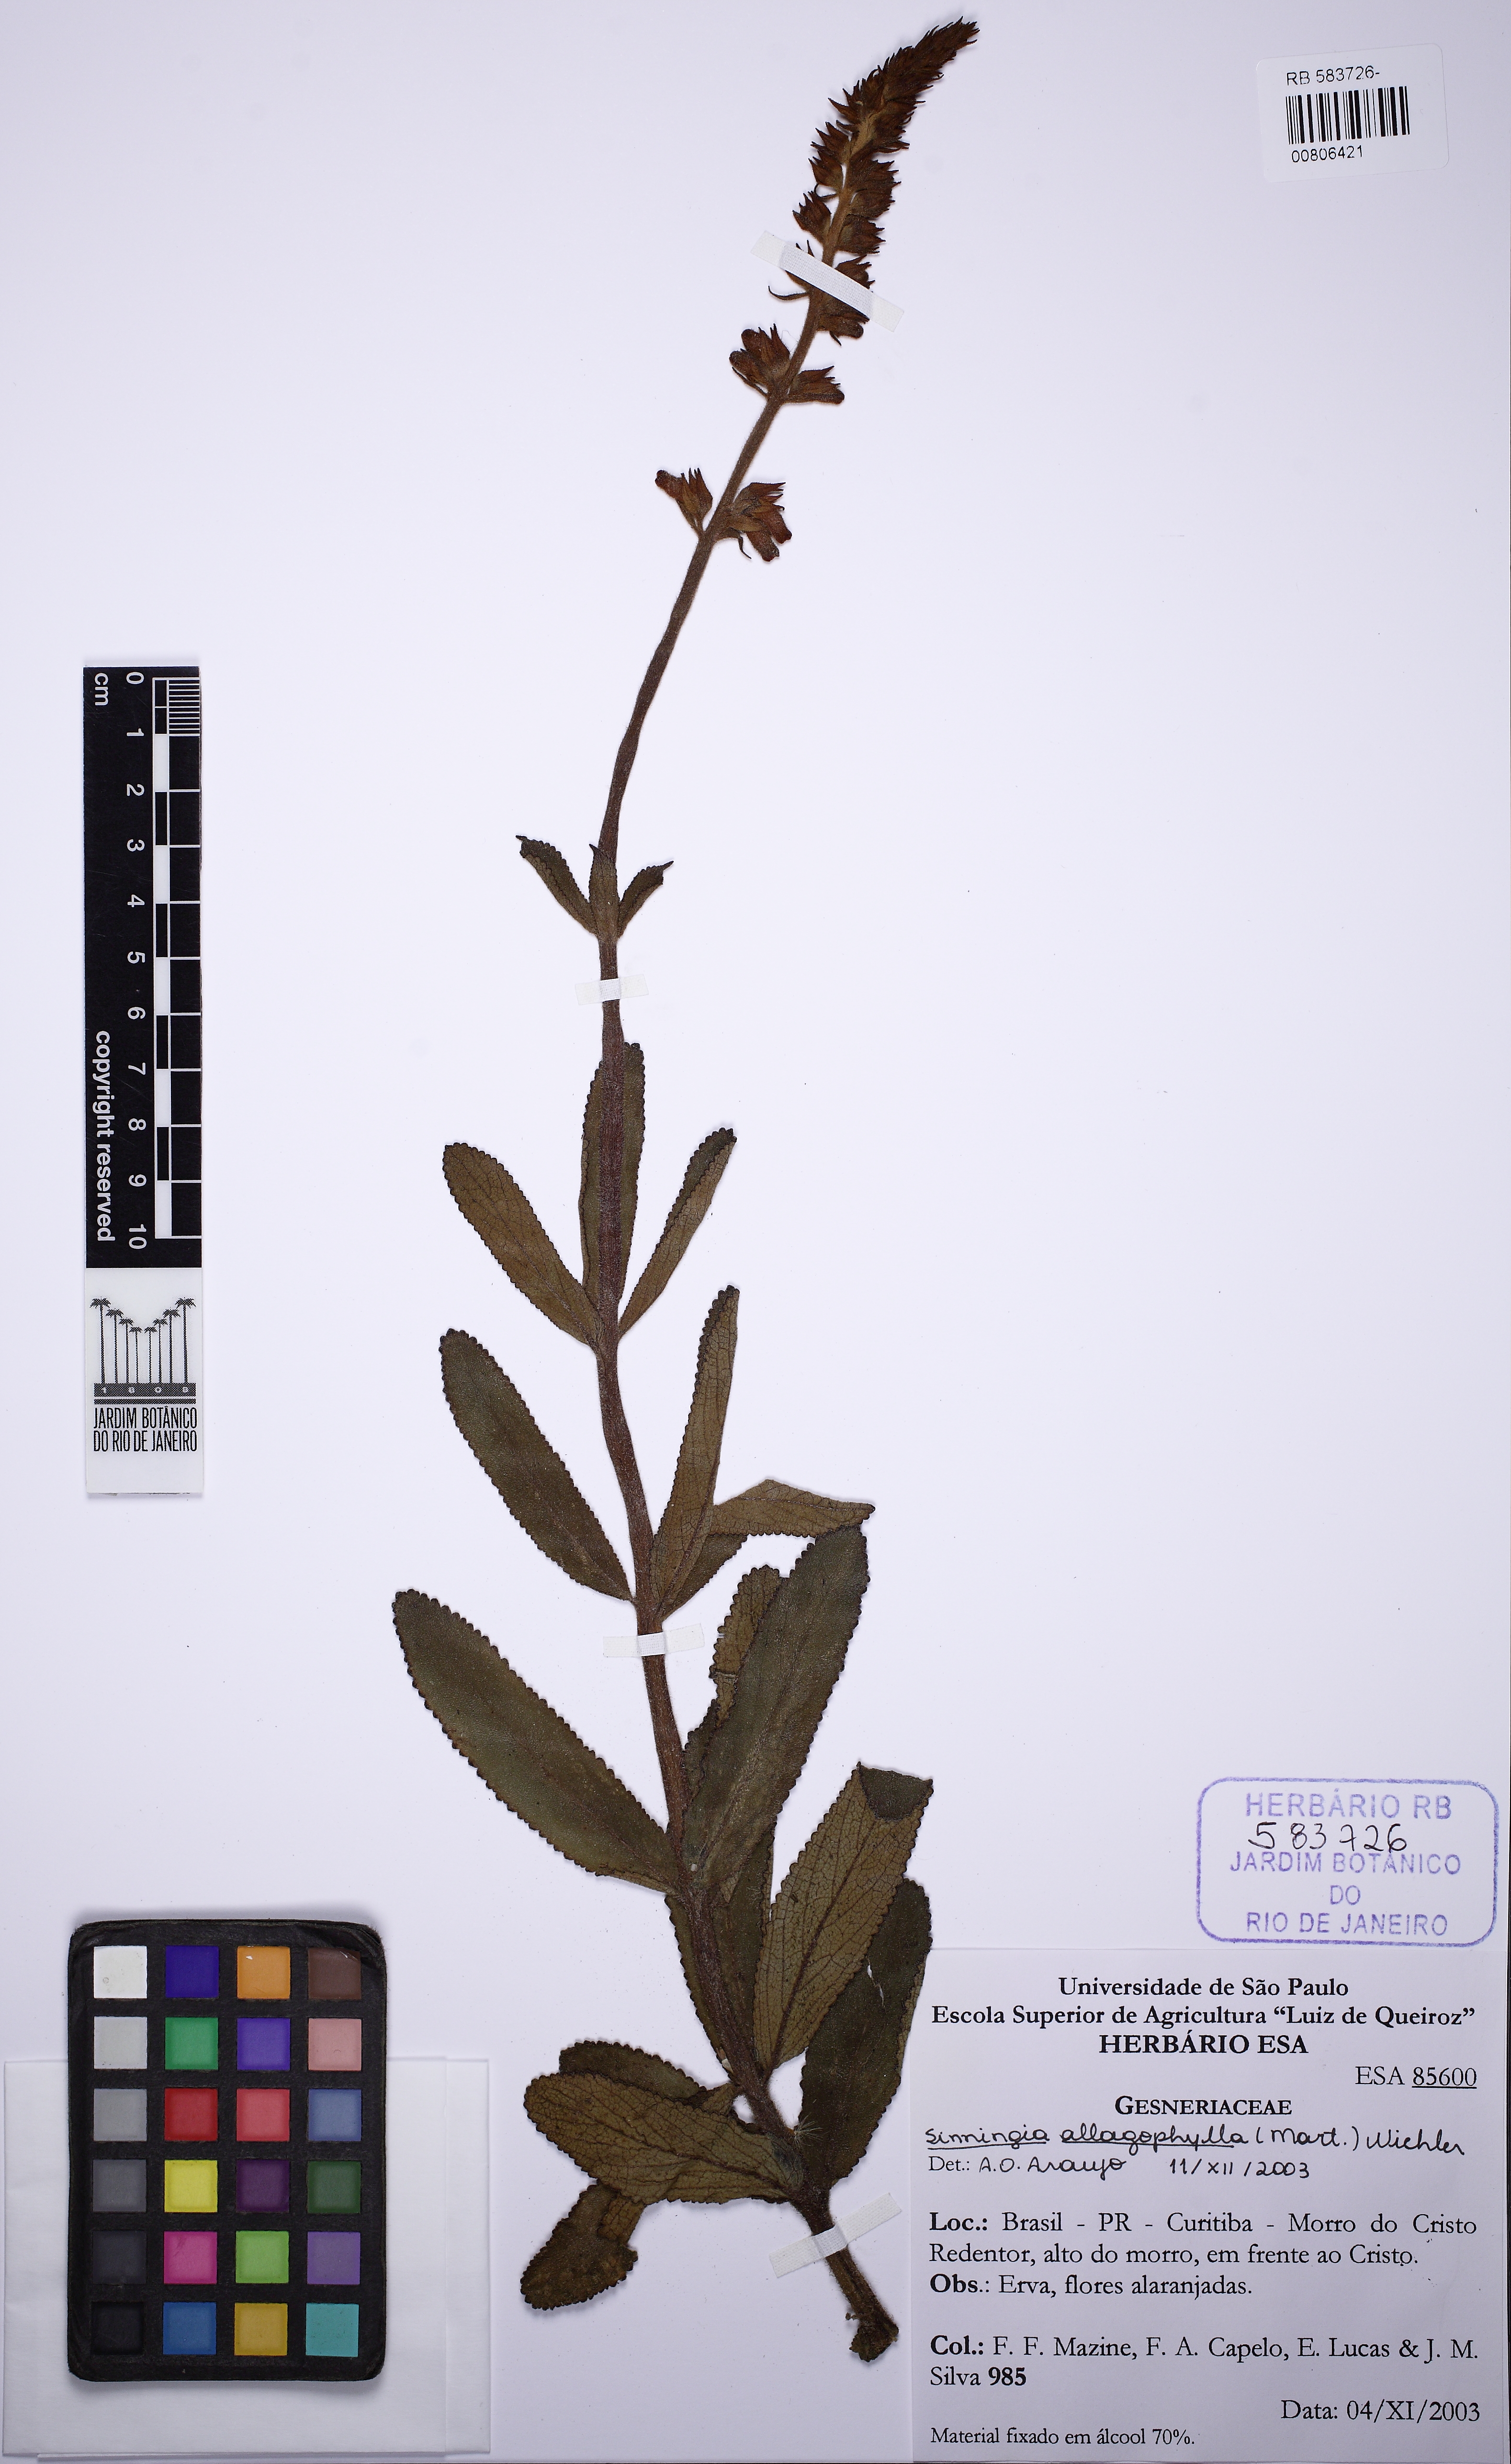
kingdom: Plantae
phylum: Tracheophyta
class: Magnoliopsida
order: Lamiales
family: Gesneriaceae
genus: Sinningia
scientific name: Sinningia
